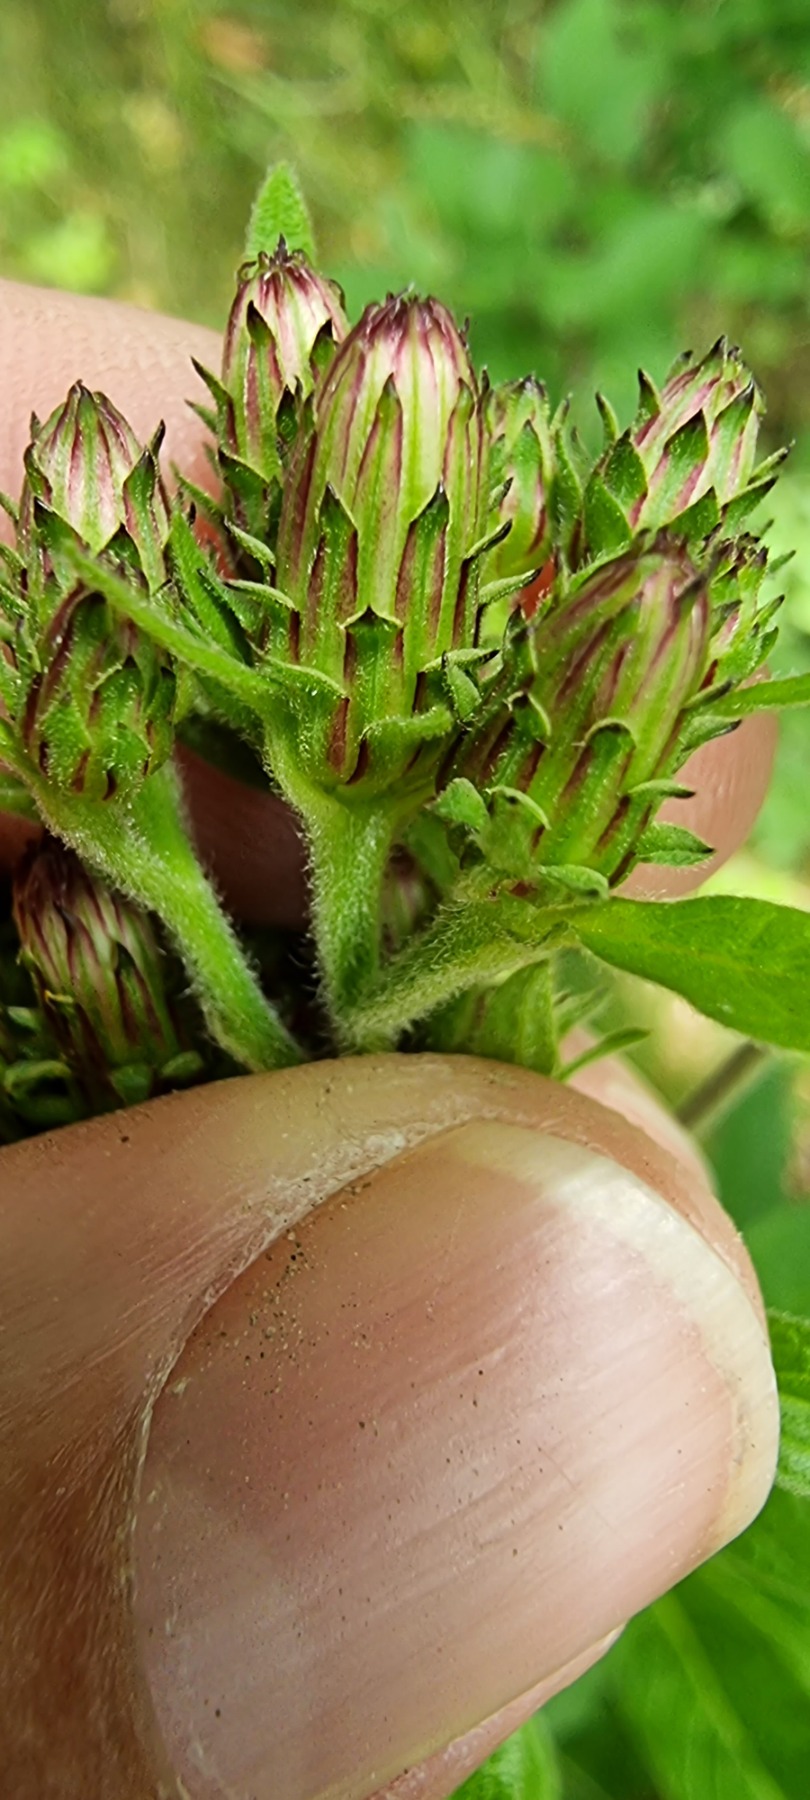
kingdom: Plantae
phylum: Tracheophyta
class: Magnoliopsida
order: Asterales
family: Asteraceae
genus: Pentanema
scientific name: Pentanema squarrosum
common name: Trekløft-alant
